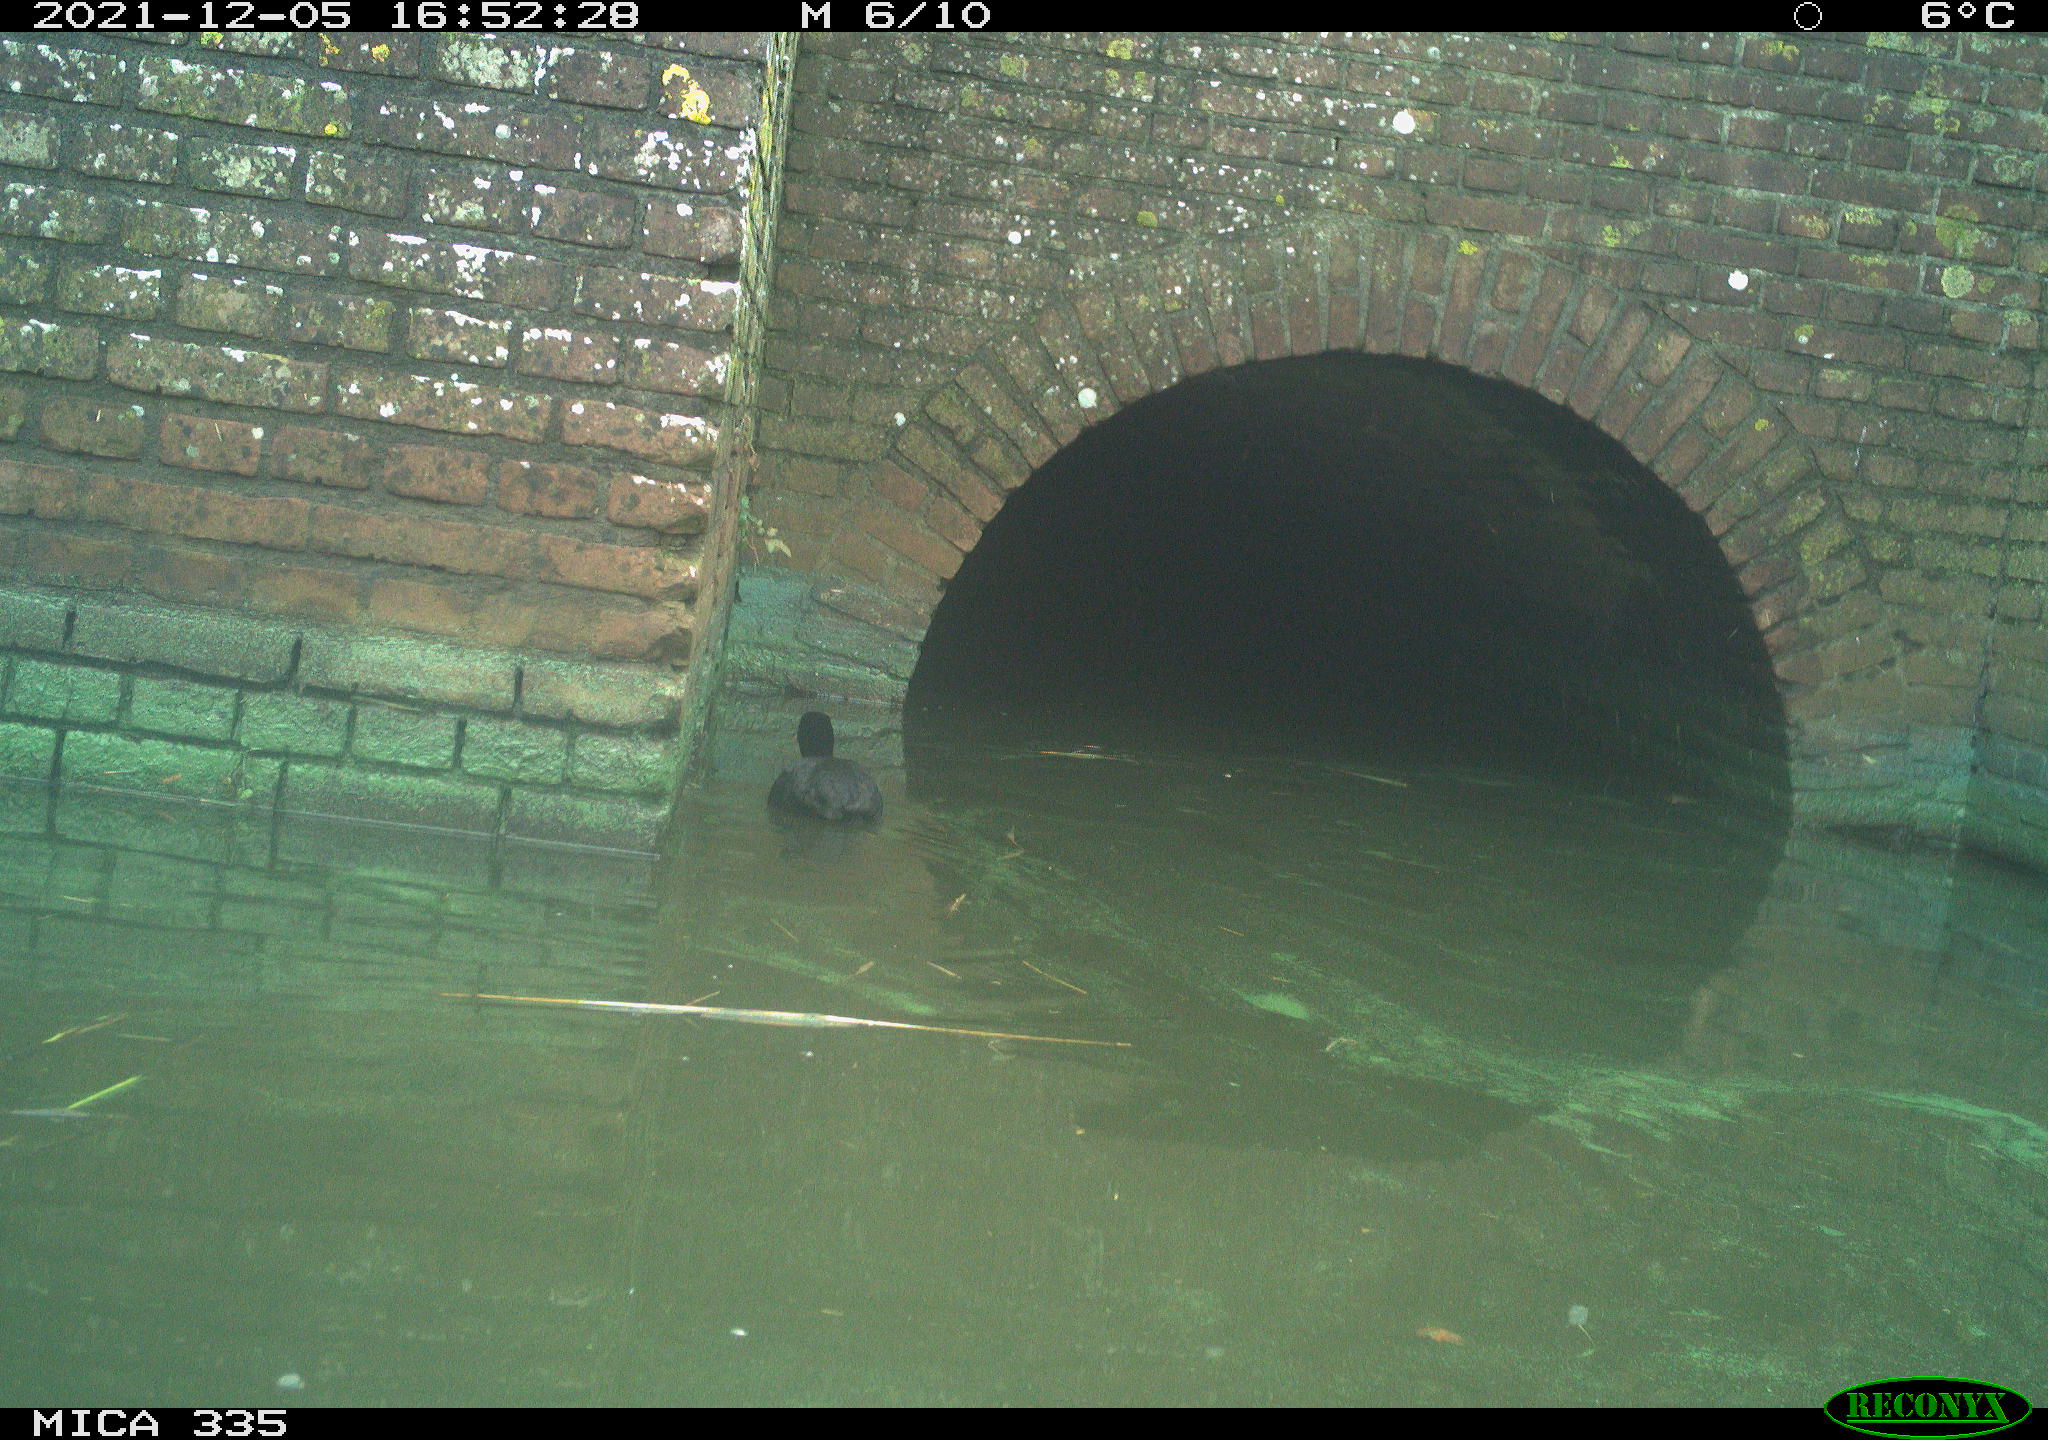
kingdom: Animalia
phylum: Chordata
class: Aves
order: Gruiformes
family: Rallidae
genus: Fulica
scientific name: Fulica atra
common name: Eurasian coot
